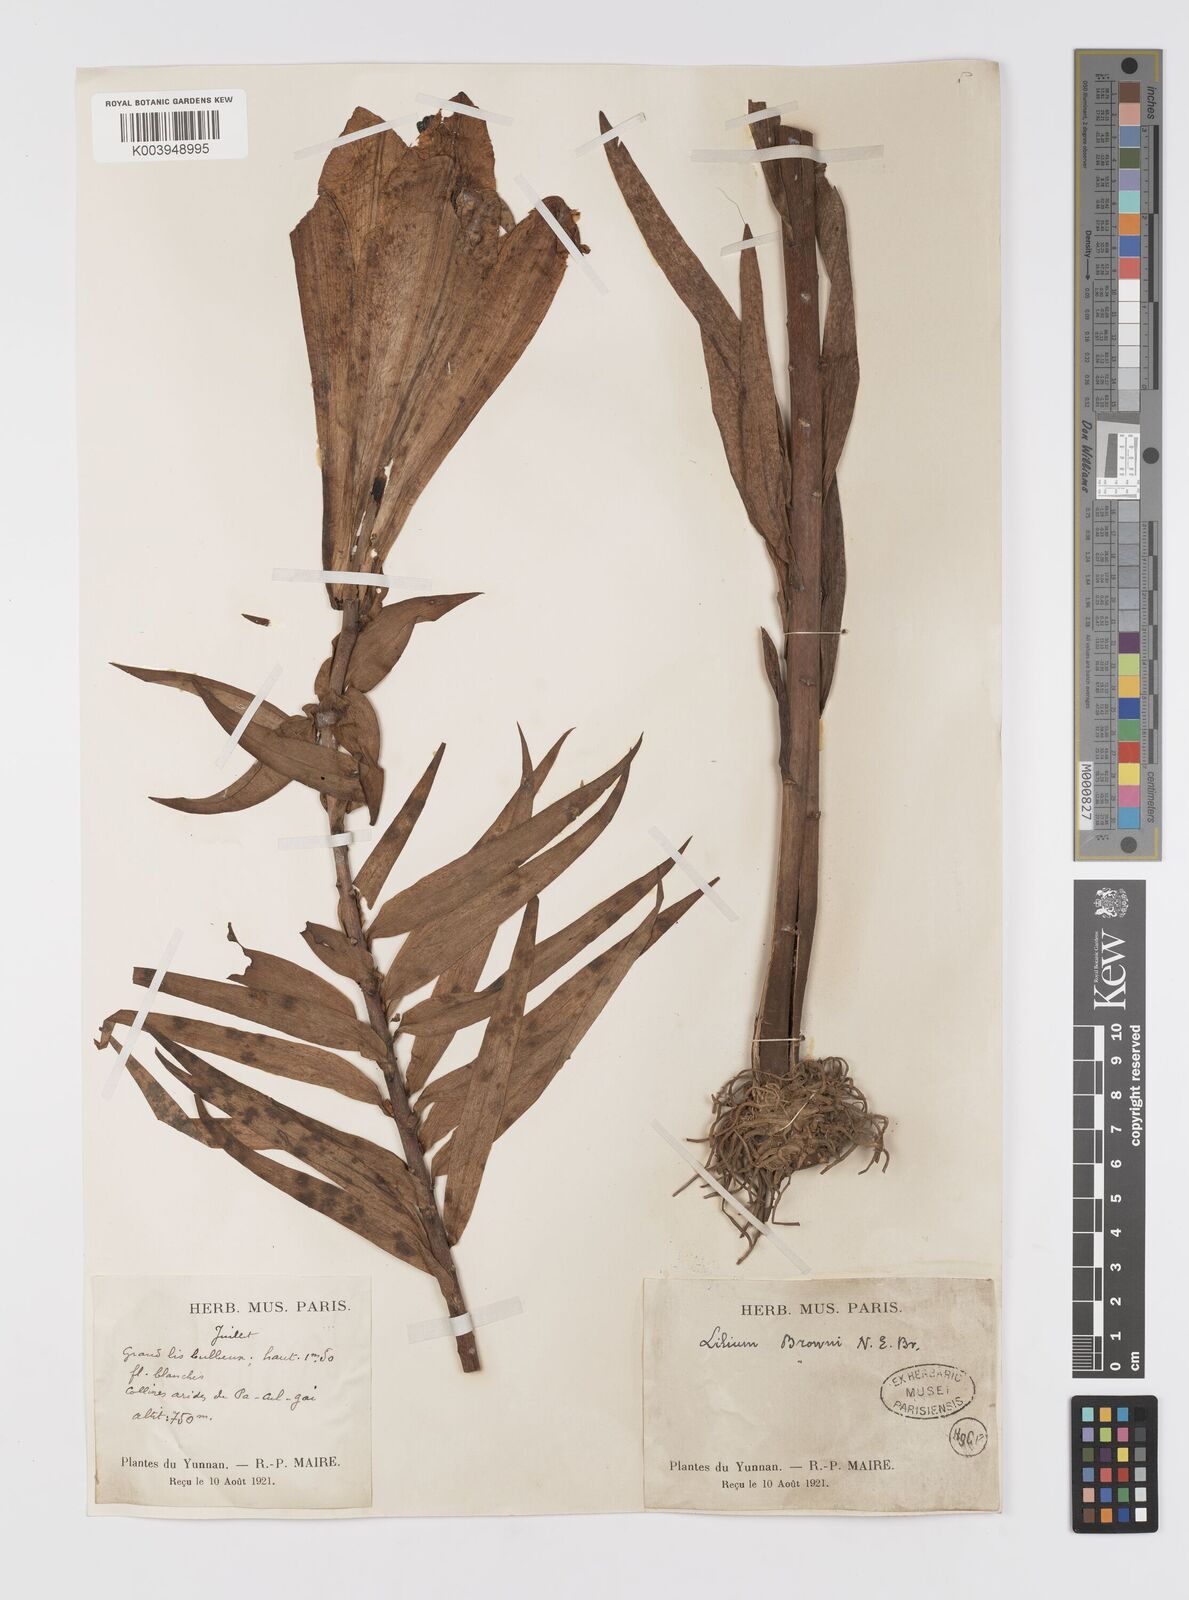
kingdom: Plantae
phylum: Tracheophyta
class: Liliopsida
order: Liliales
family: Liliaceae
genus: Lilium
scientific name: Lilium sulphureum
